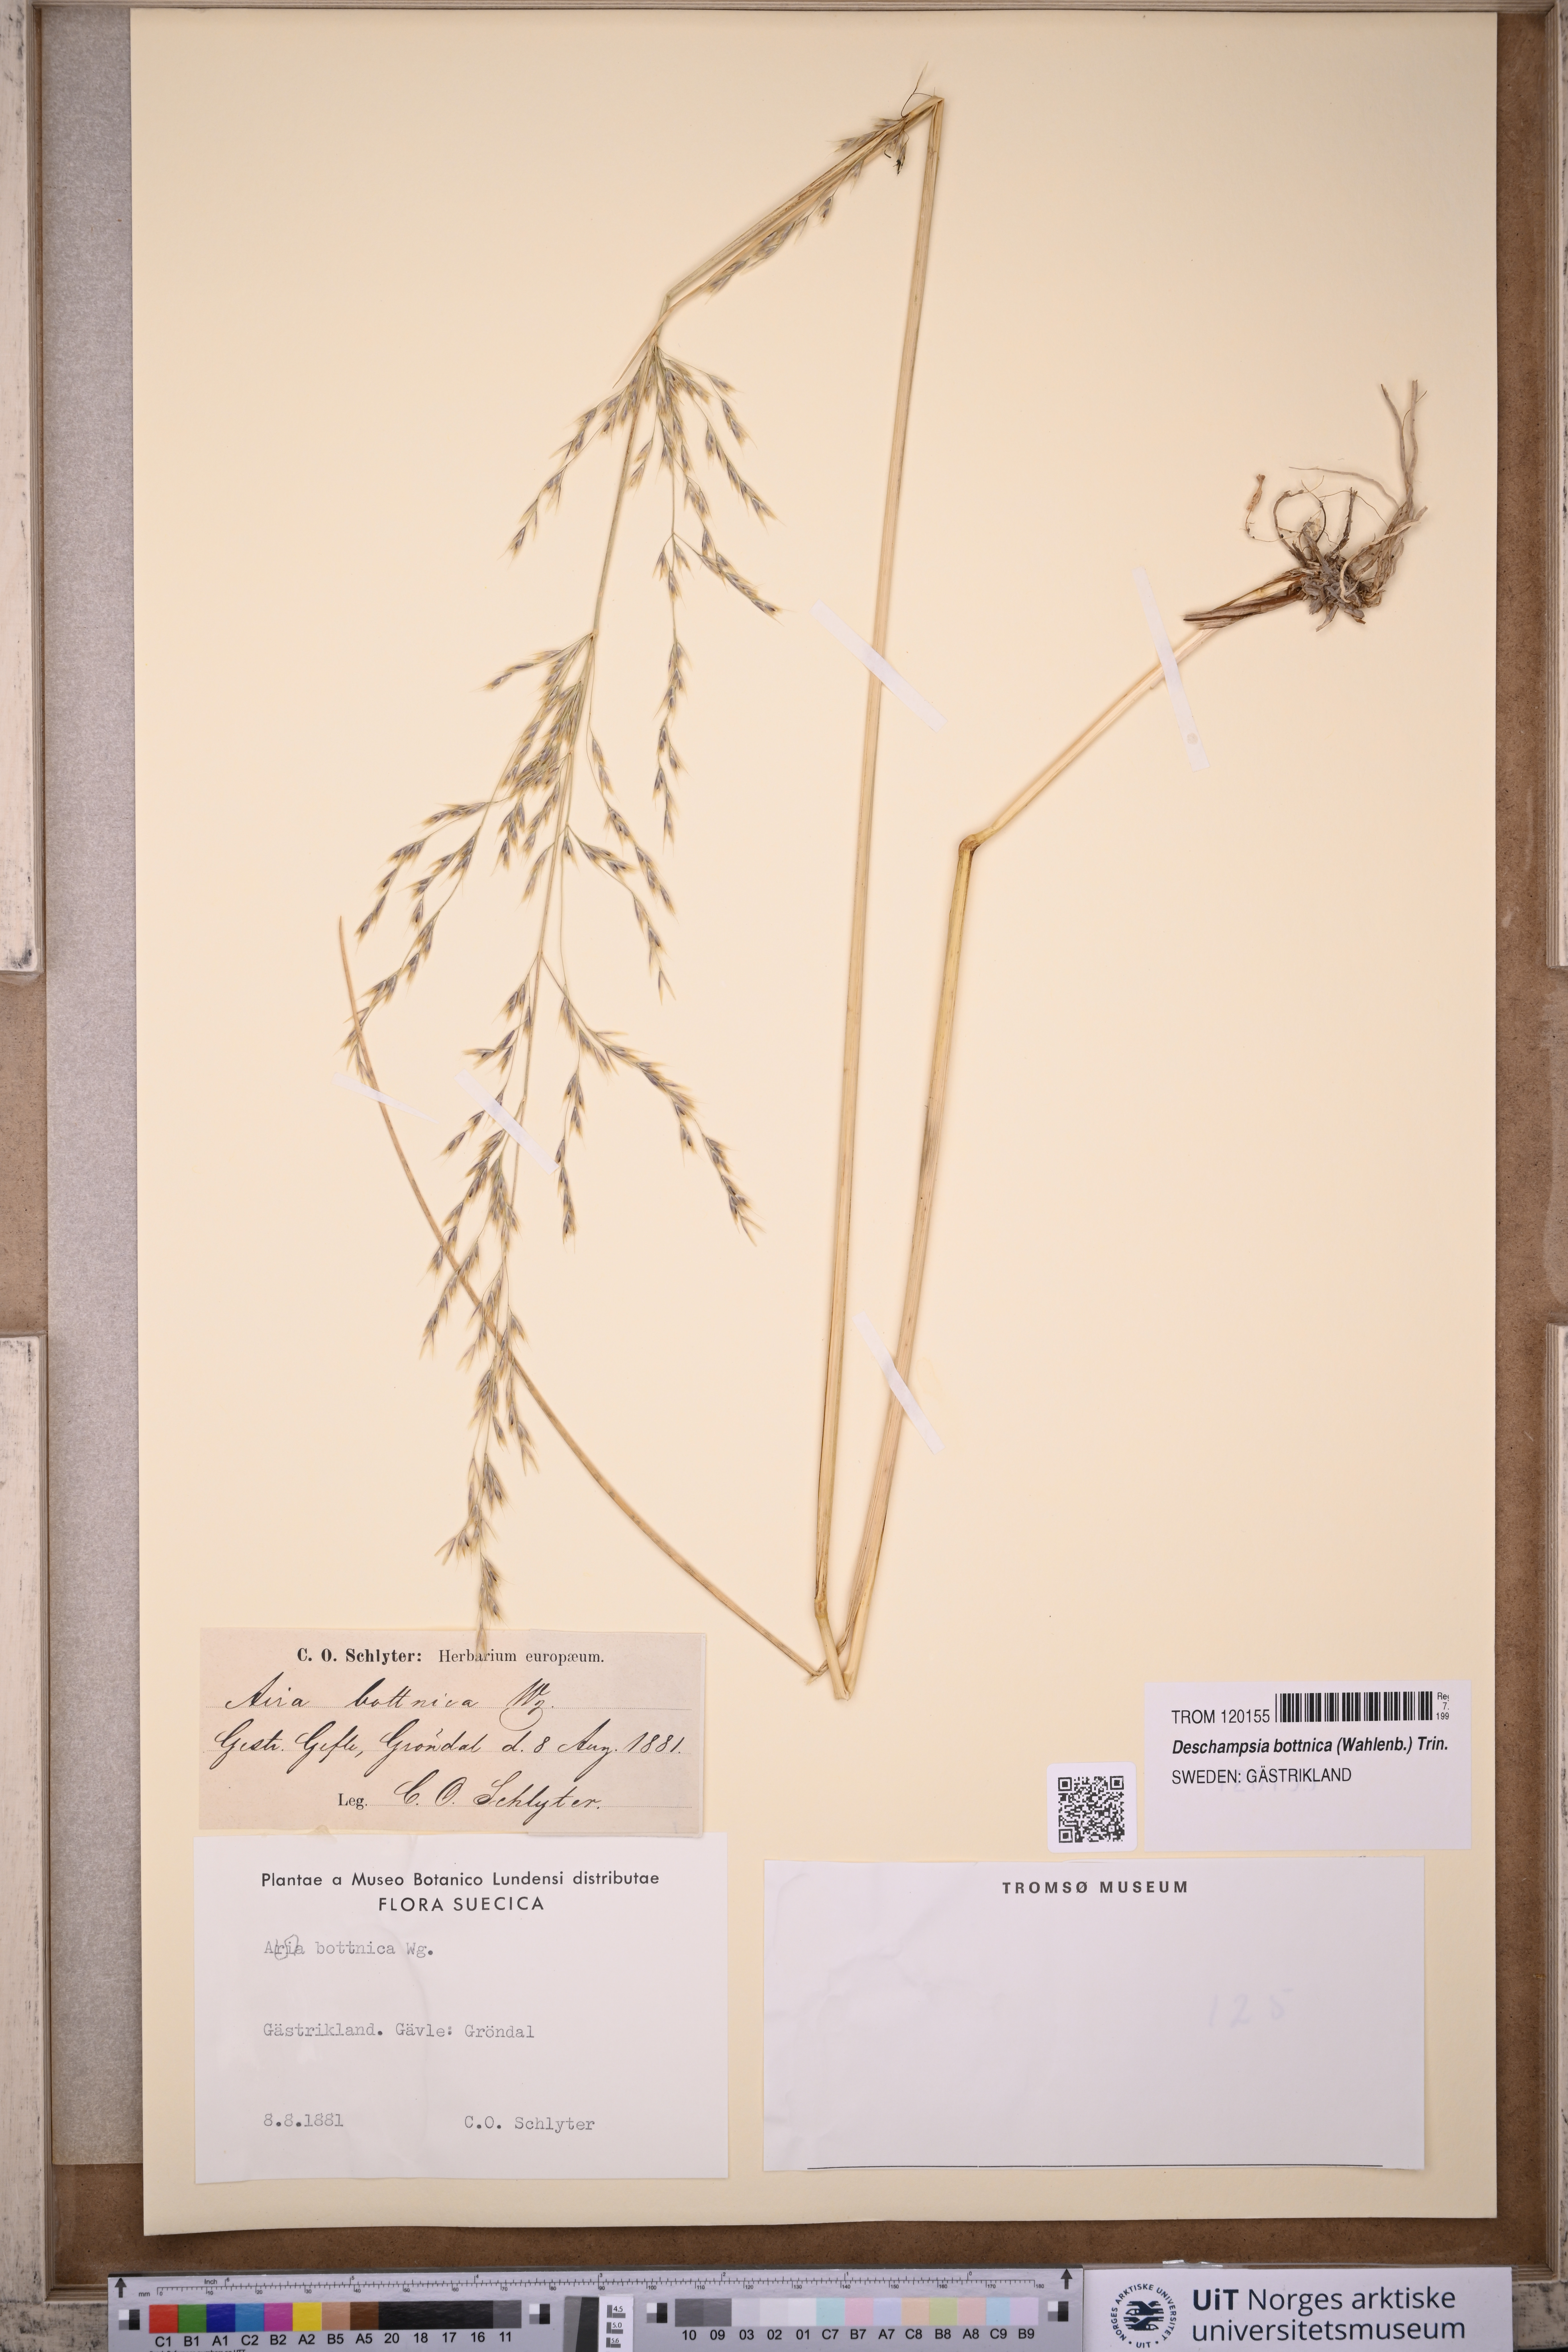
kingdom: Plantae
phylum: Tracheophyta
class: Liliopsida
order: Poales
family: Poaceae
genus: Deschampsia
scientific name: Deschampsia cespitosa
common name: Tufted hair-grass
